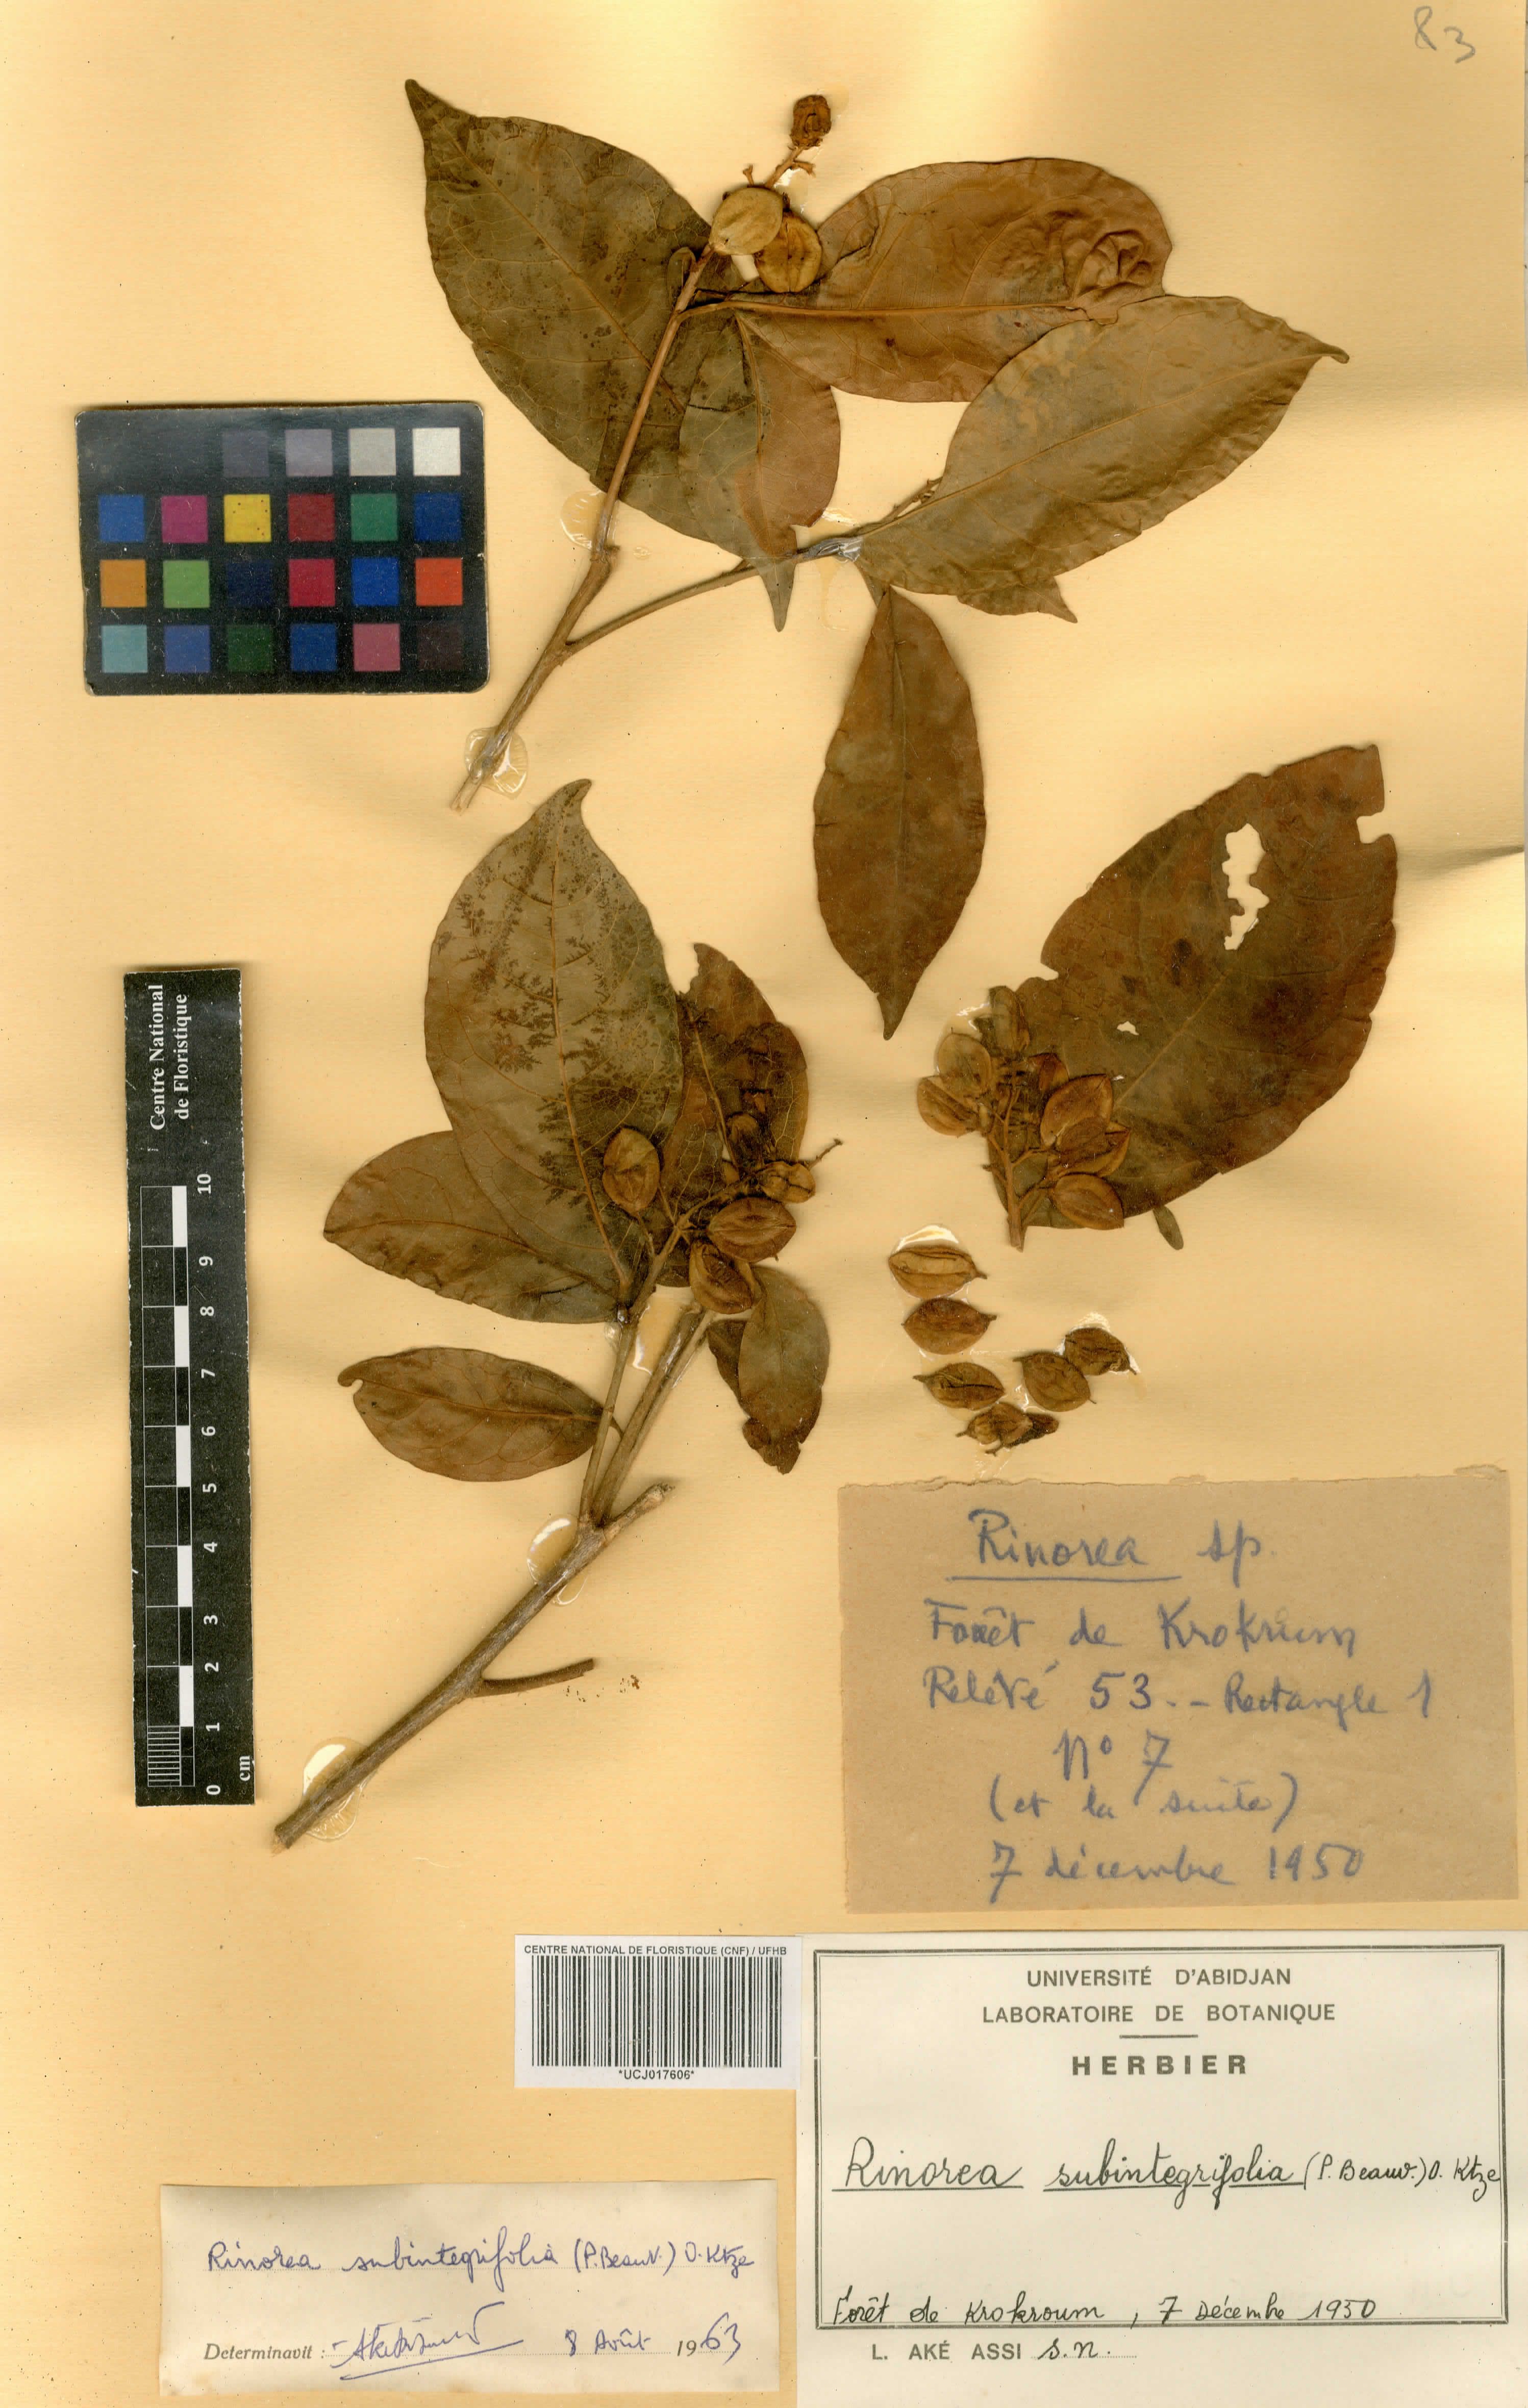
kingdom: Plantae
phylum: Tracheophyta
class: Magnoliopsida
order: Malpighiales
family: Violaceae
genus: Rinorea
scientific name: Rinorea subintegrifolia
